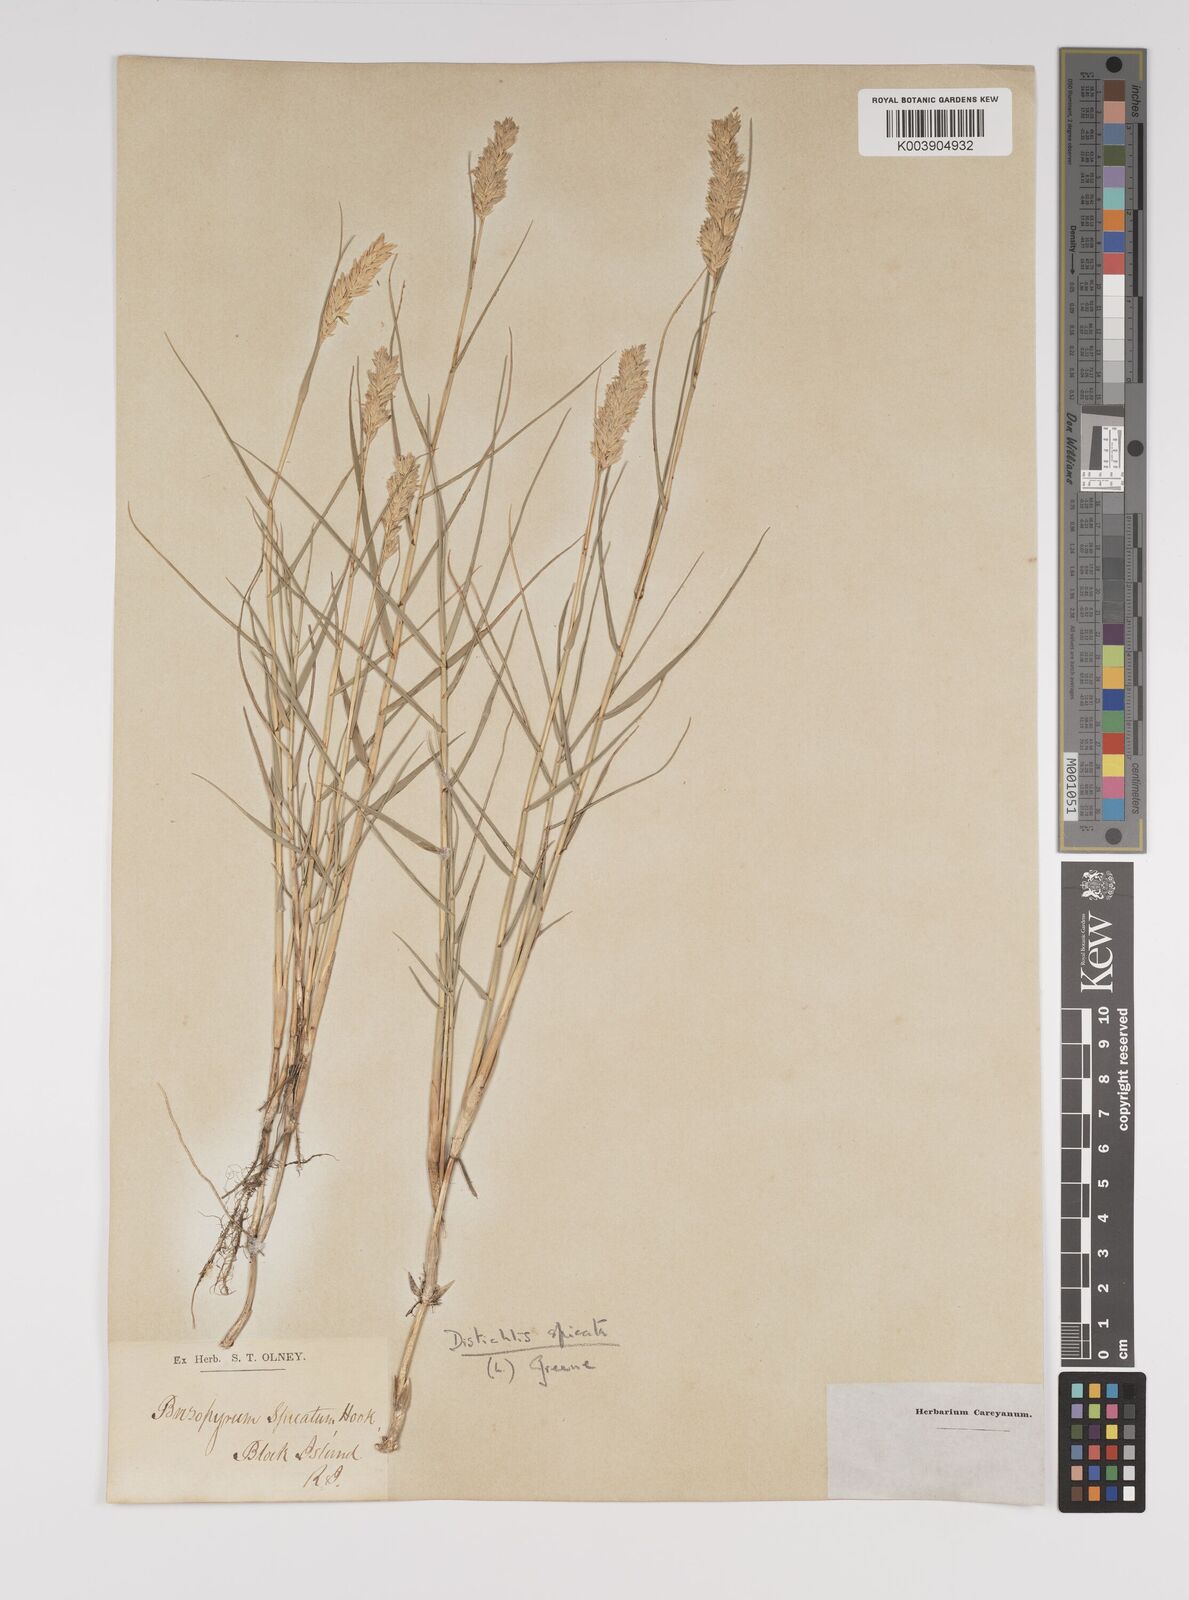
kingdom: Plantae
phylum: Tracheophyta
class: Liliopsida
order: Poales
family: Poaceae
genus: Distichlis
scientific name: Distichlis spicata
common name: Saltgrass
